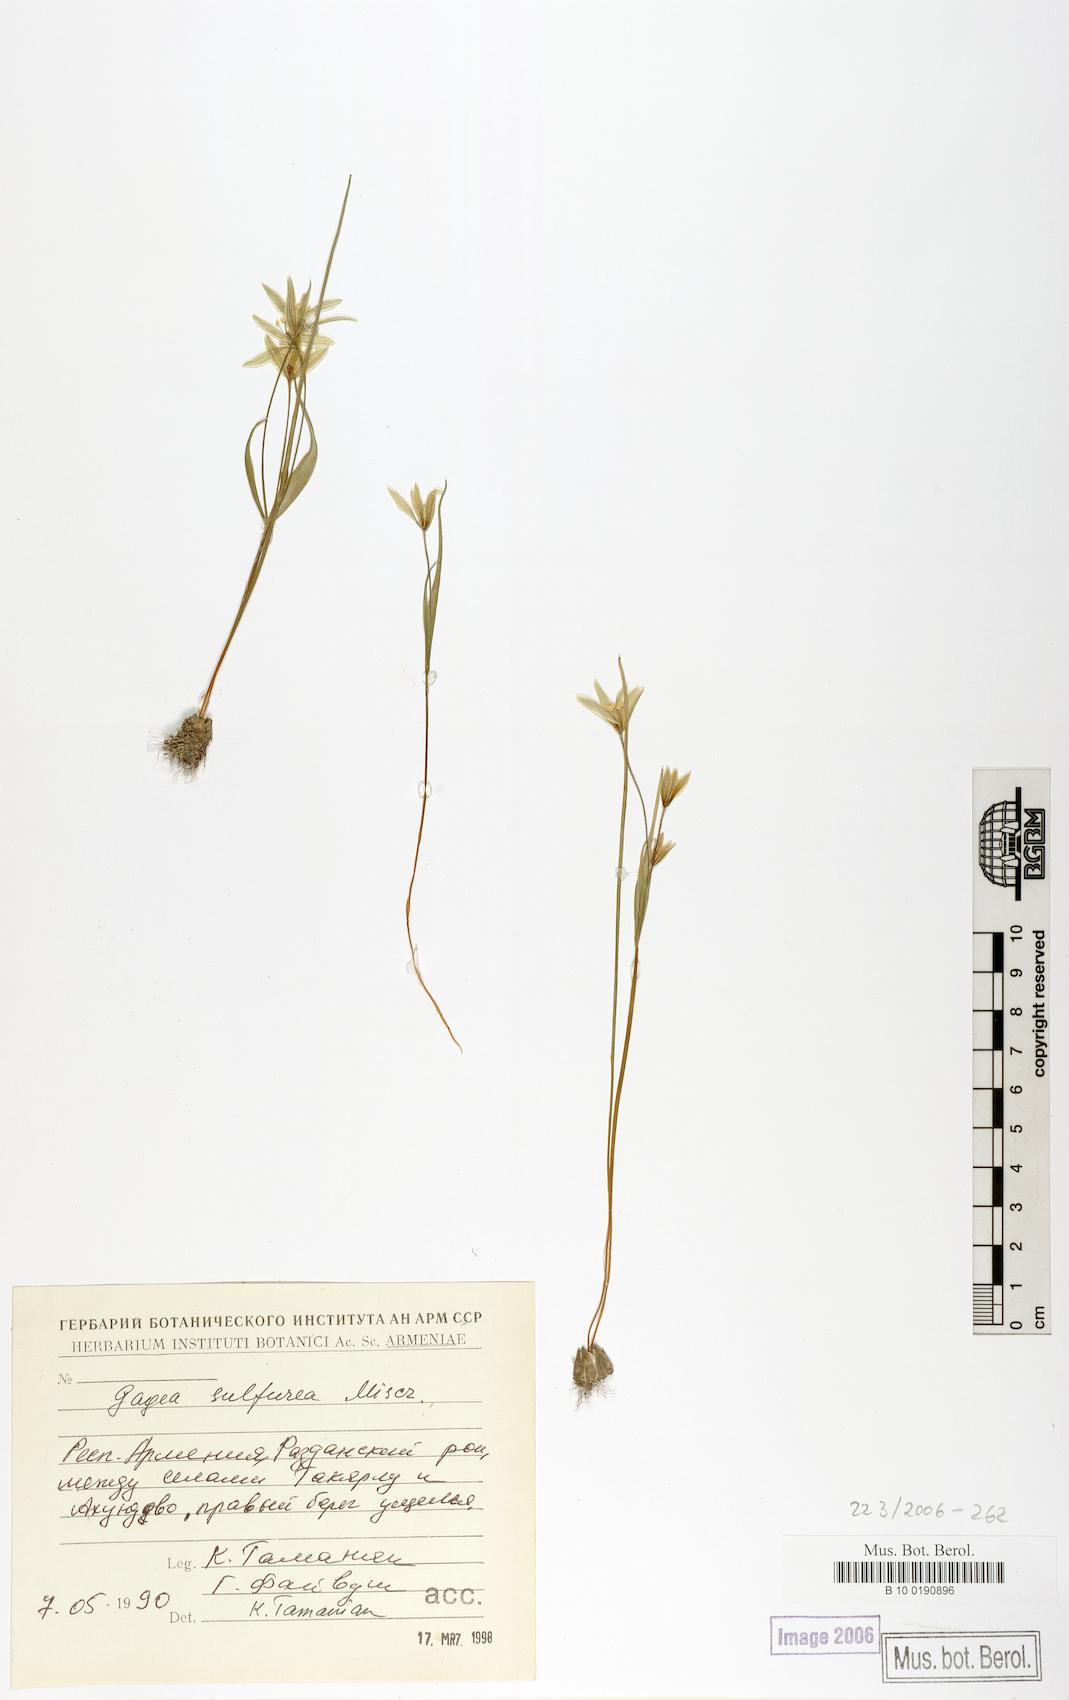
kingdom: Plantae
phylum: Tracheophyta
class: Liliopsida
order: Liliales
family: Liliaceae
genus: Gagea
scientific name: Gagea sulfurea
